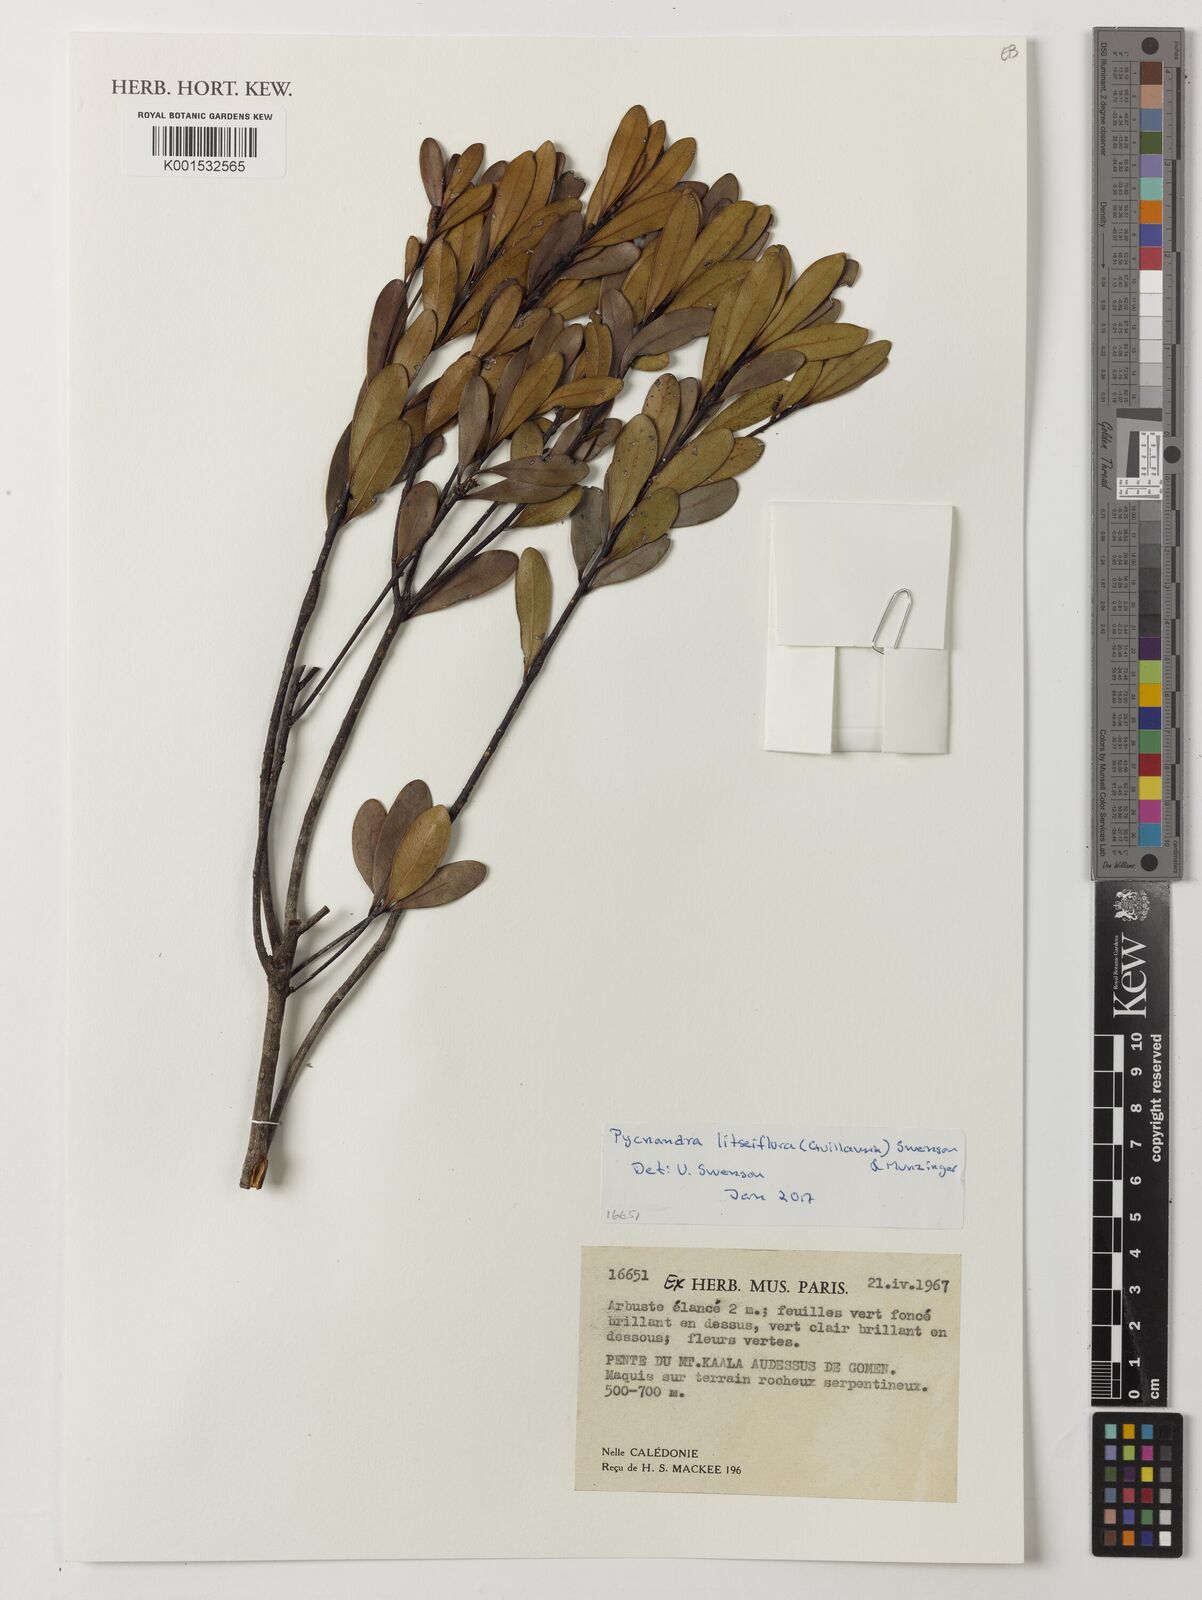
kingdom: Plantae
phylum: Tracheophyta
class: Magnoliopsida
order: Ericales
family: Sapotaceae
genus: Pycnandra
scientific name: Pycnandra litseiflora
